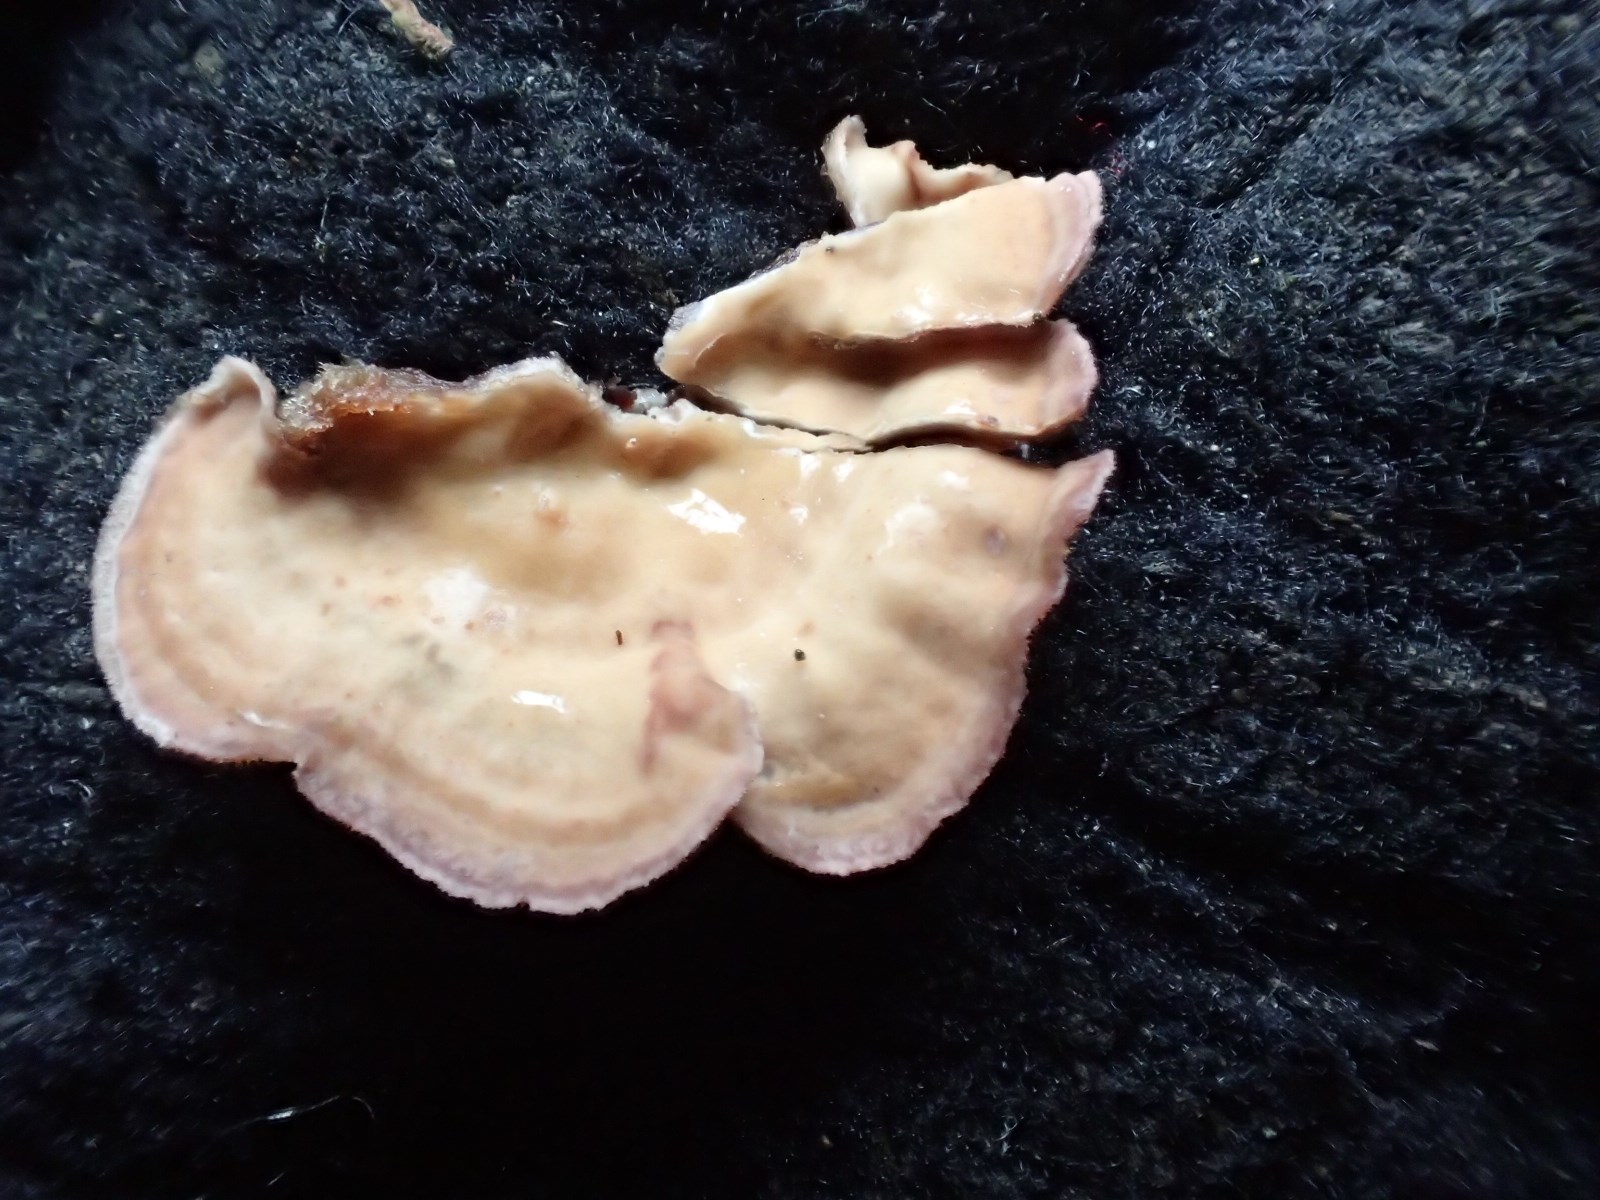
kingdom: Fungi
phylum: Basidiomycota
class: Agaricomycetes
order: Russulales
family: Stereaceae
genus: Stereum
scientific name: Stereum hirsutum
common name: håret lædersvamp
